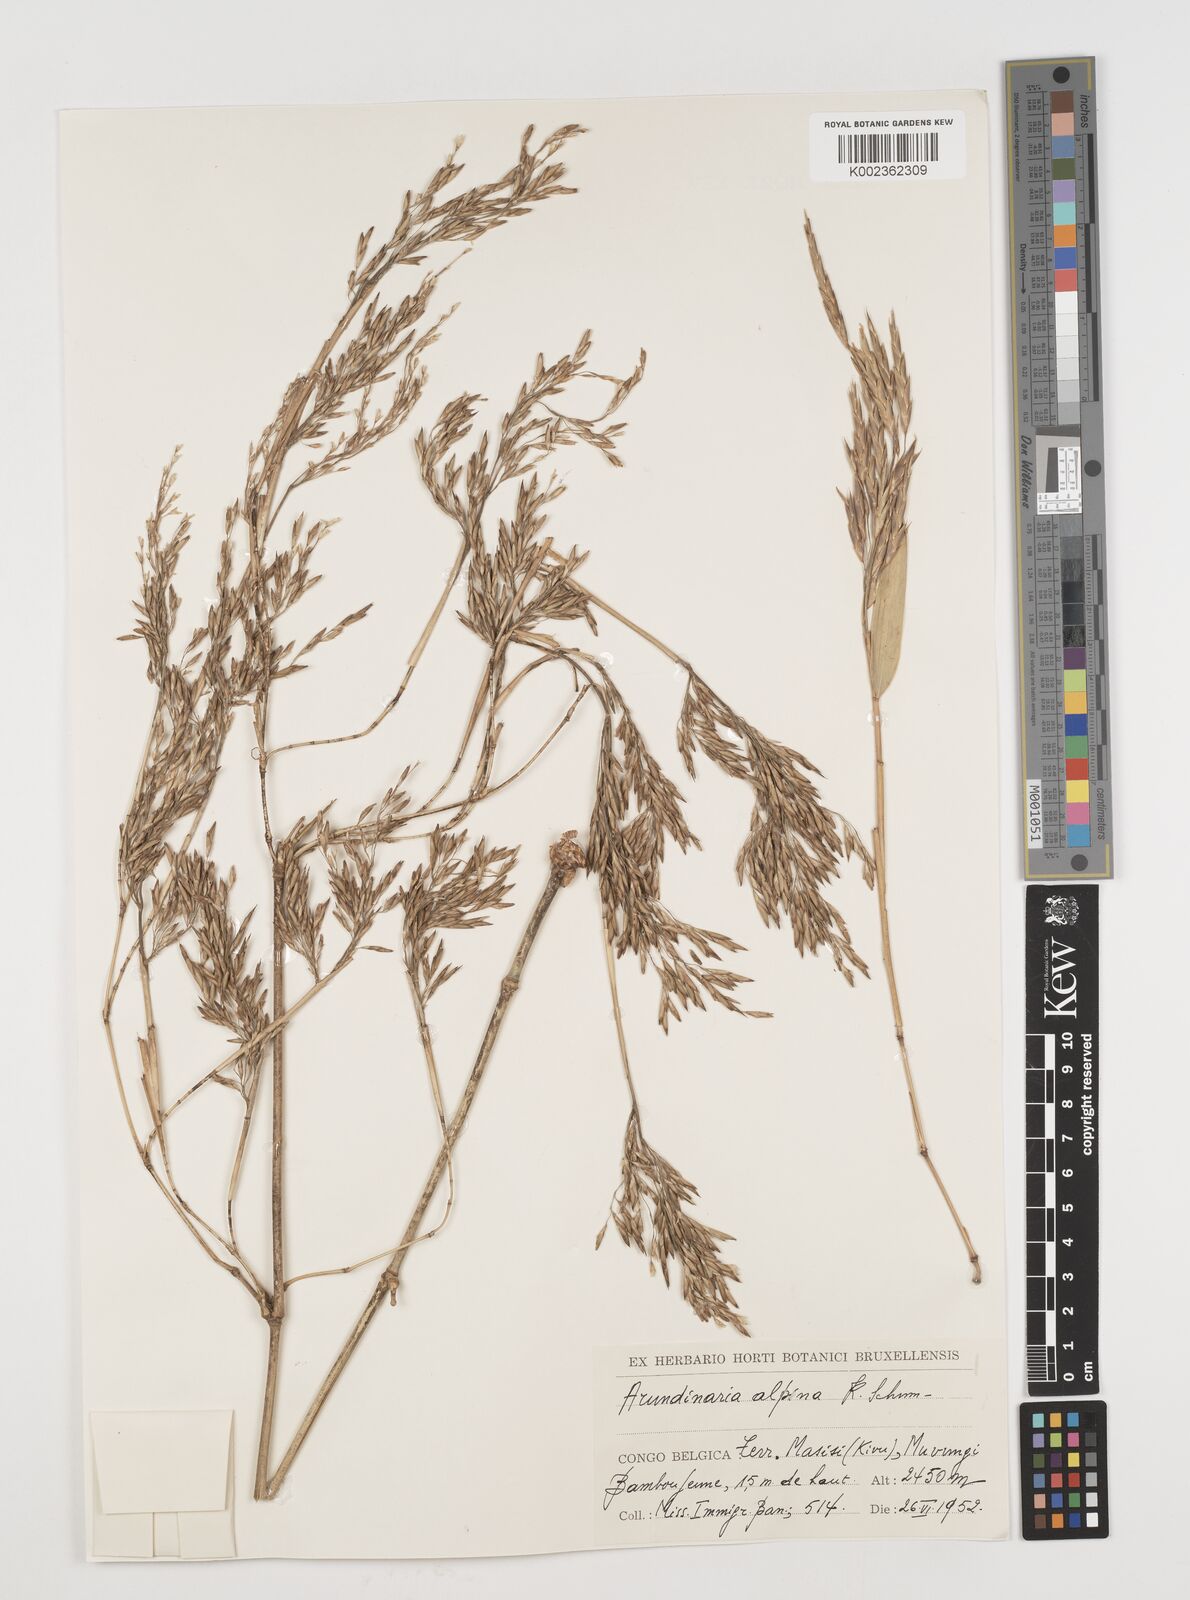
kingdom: Plantae
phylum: Tracheophyta
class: Liliopsida
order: Poales
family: Poaceae
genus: Oldeania
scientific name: Oldeania alpina
